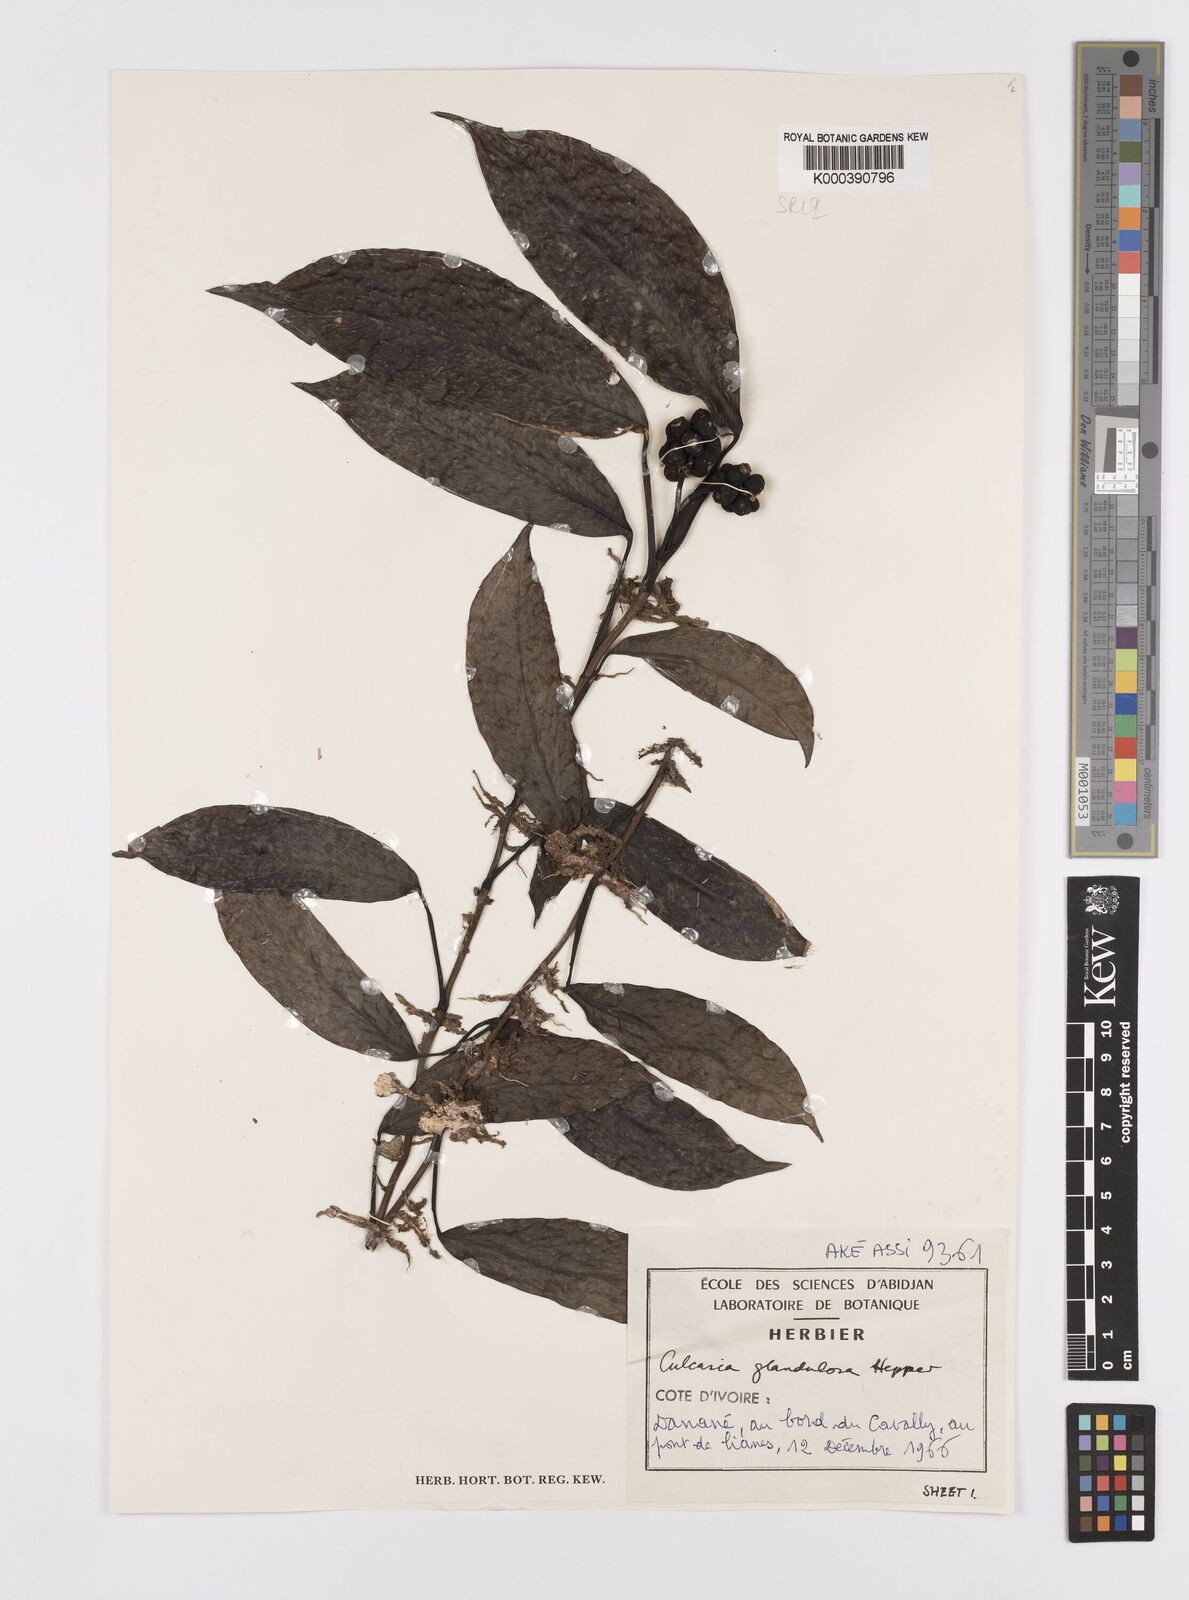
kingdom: Plantae
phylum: Tracheophyta
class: Liliopsida
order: Alismatales
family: Araceae
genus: Culcasia
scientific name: Culcasia glandulosa
